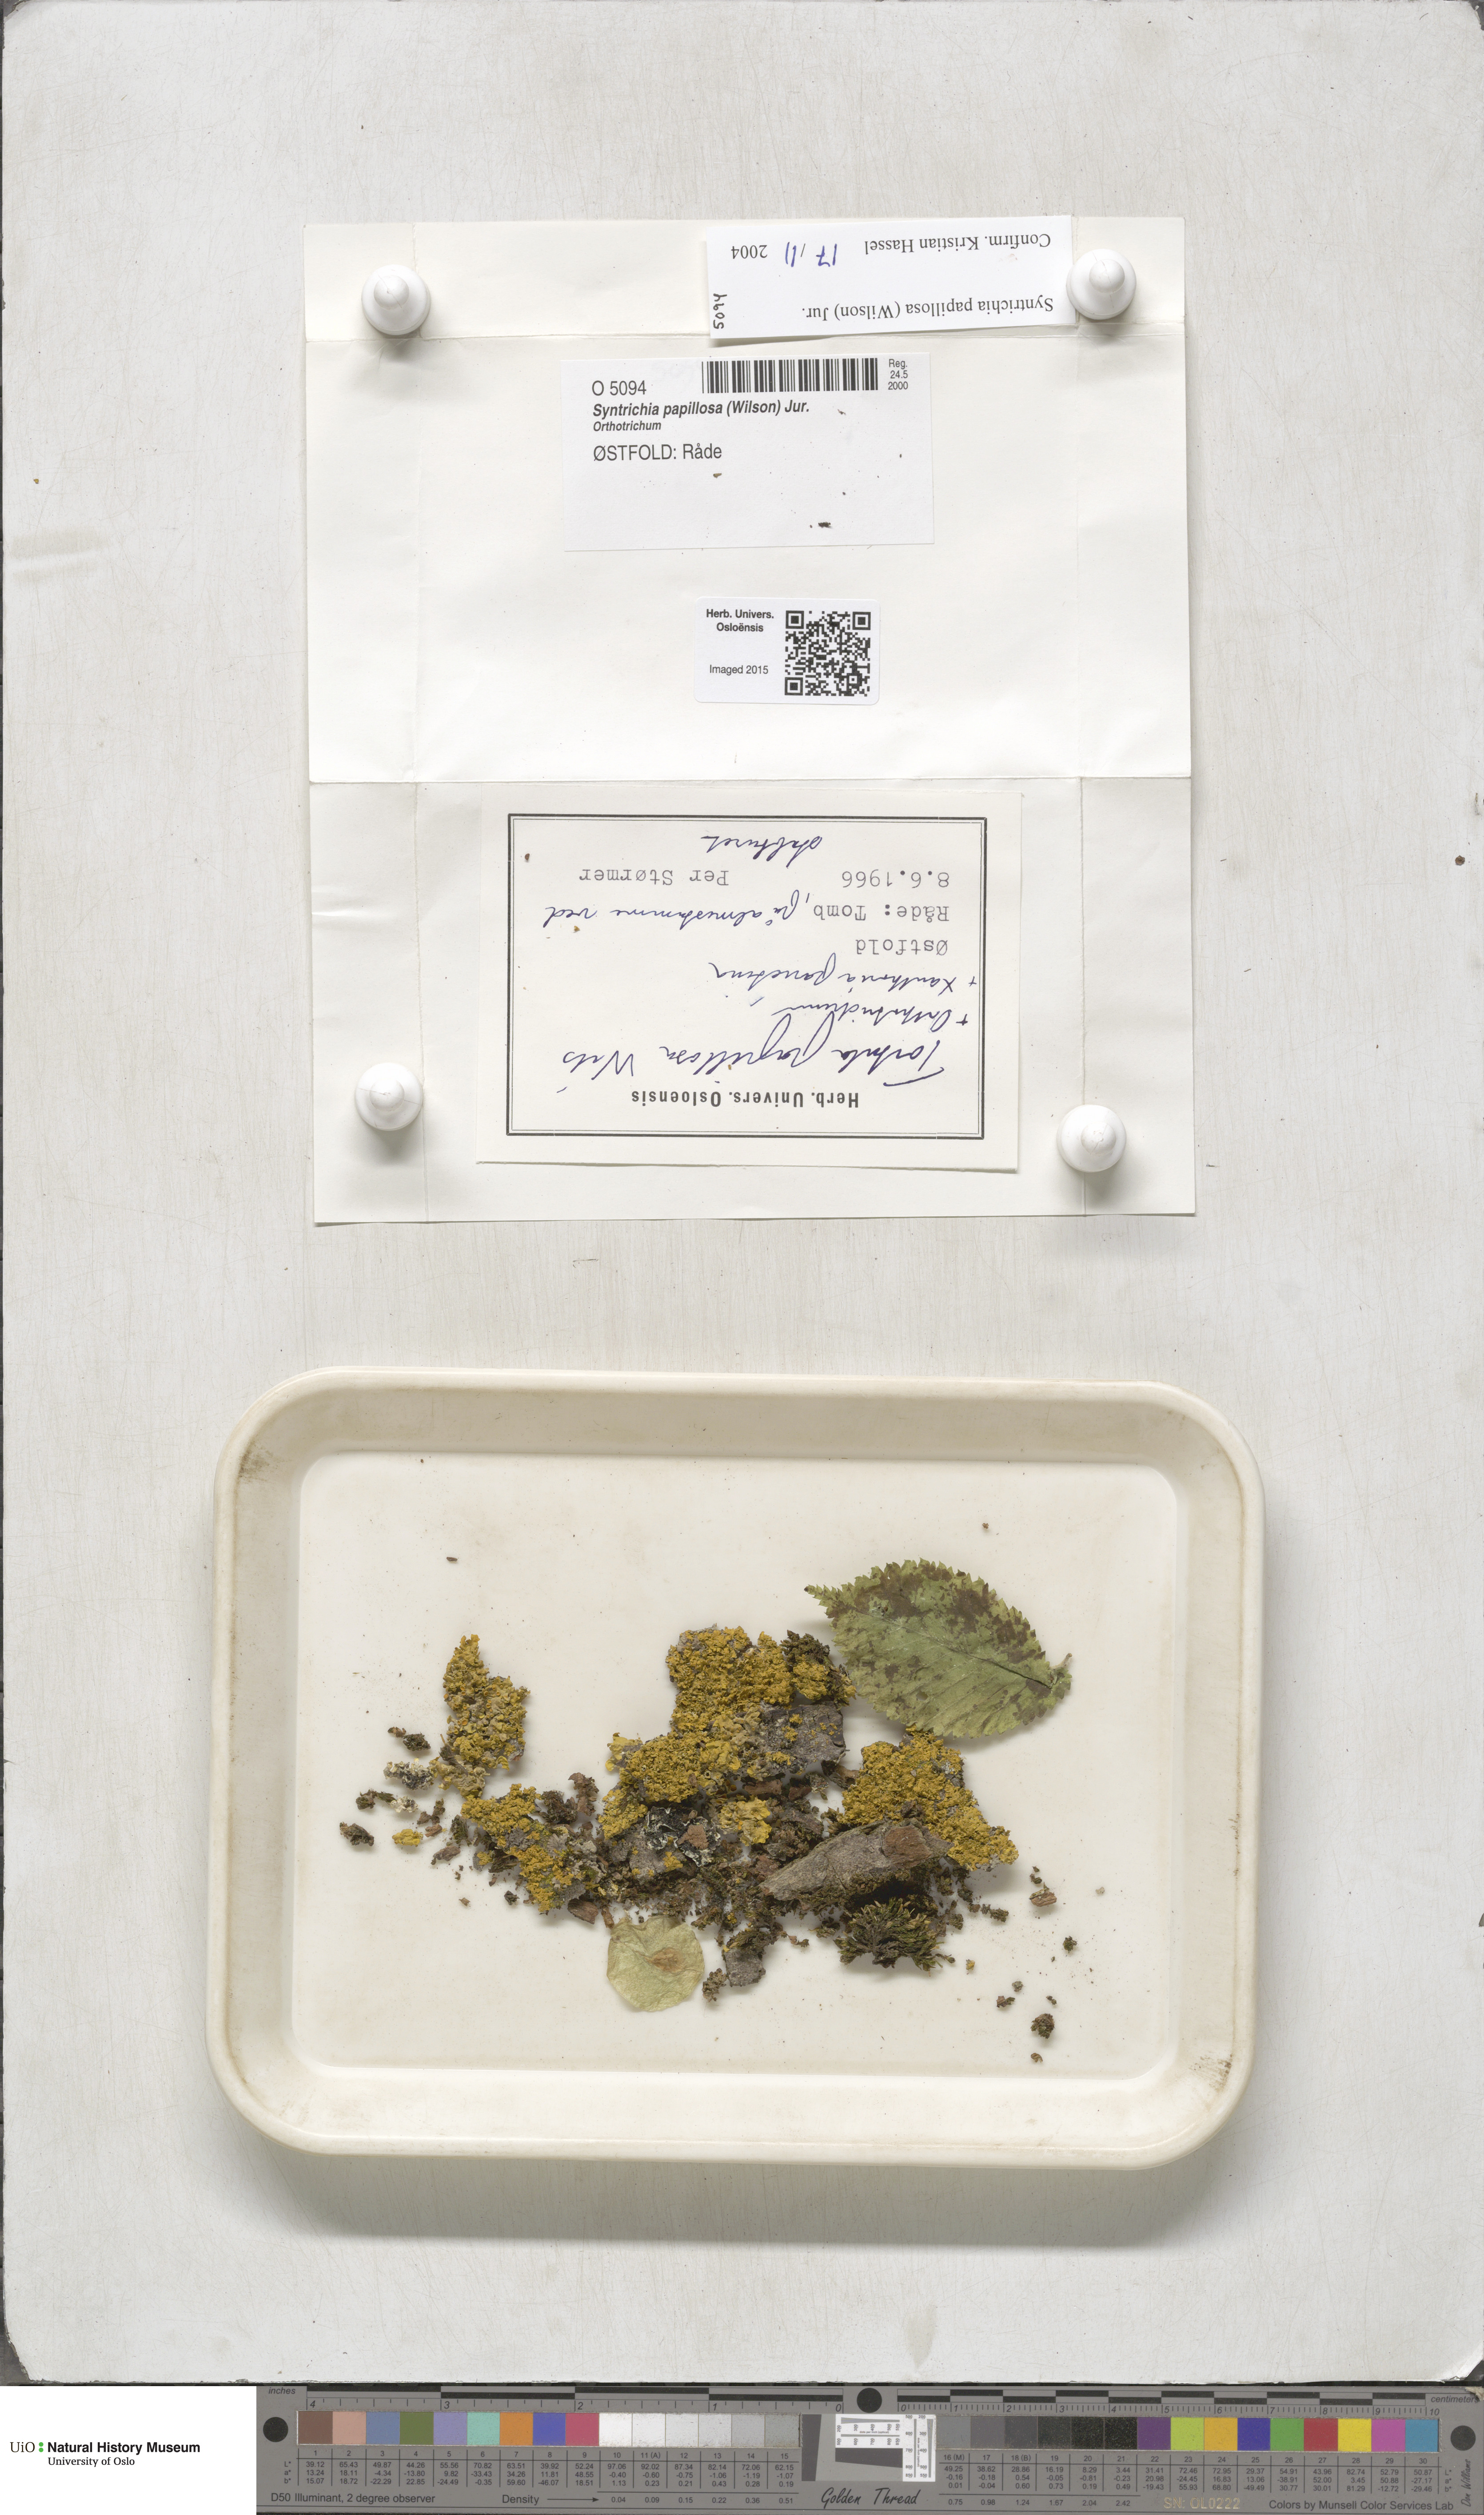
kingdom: Plantae
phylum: Bryophyta
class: Bryopsida
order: Pottiales
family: Pottiaceae
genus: Syntrichia
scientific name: Syntrichia papillosa
